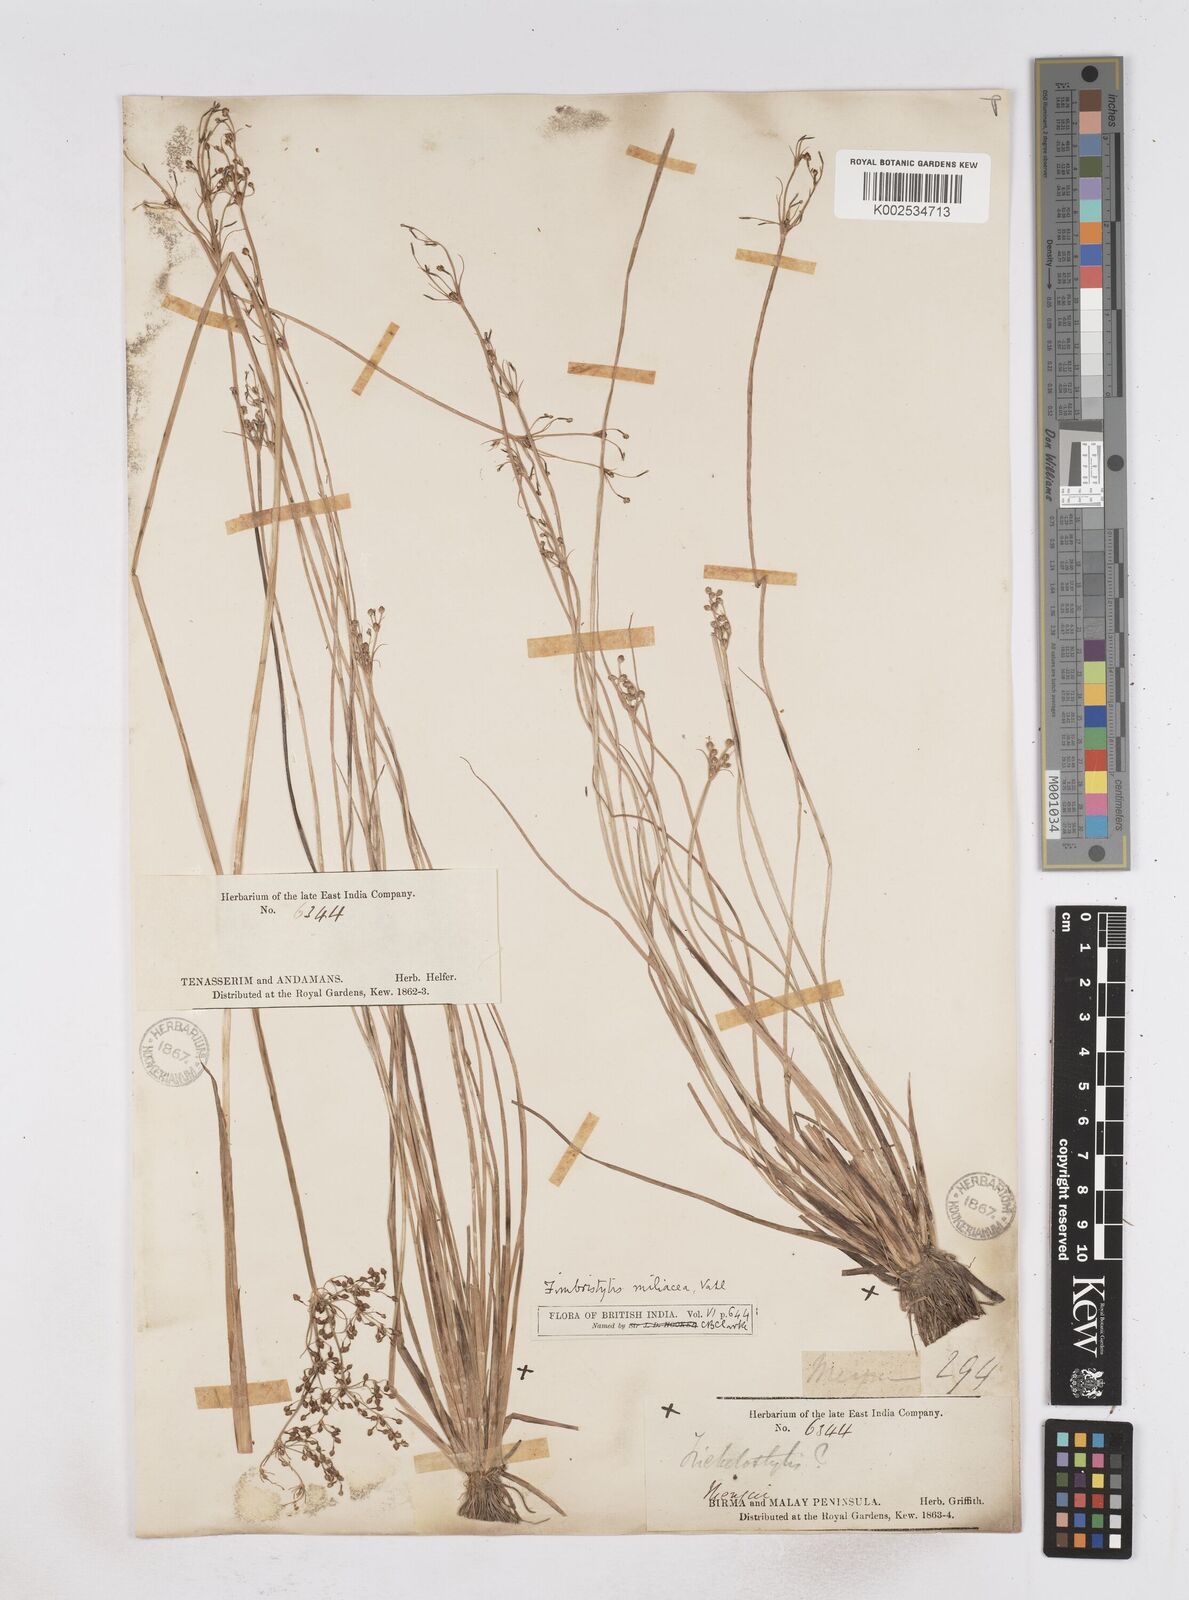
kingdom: Plantae
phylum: Tracheophyta
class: Liliopsida
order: Poales
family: Cyperaceae
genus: Fimbristylis
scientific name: Fimbristylis littoralis
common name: Fimbry
